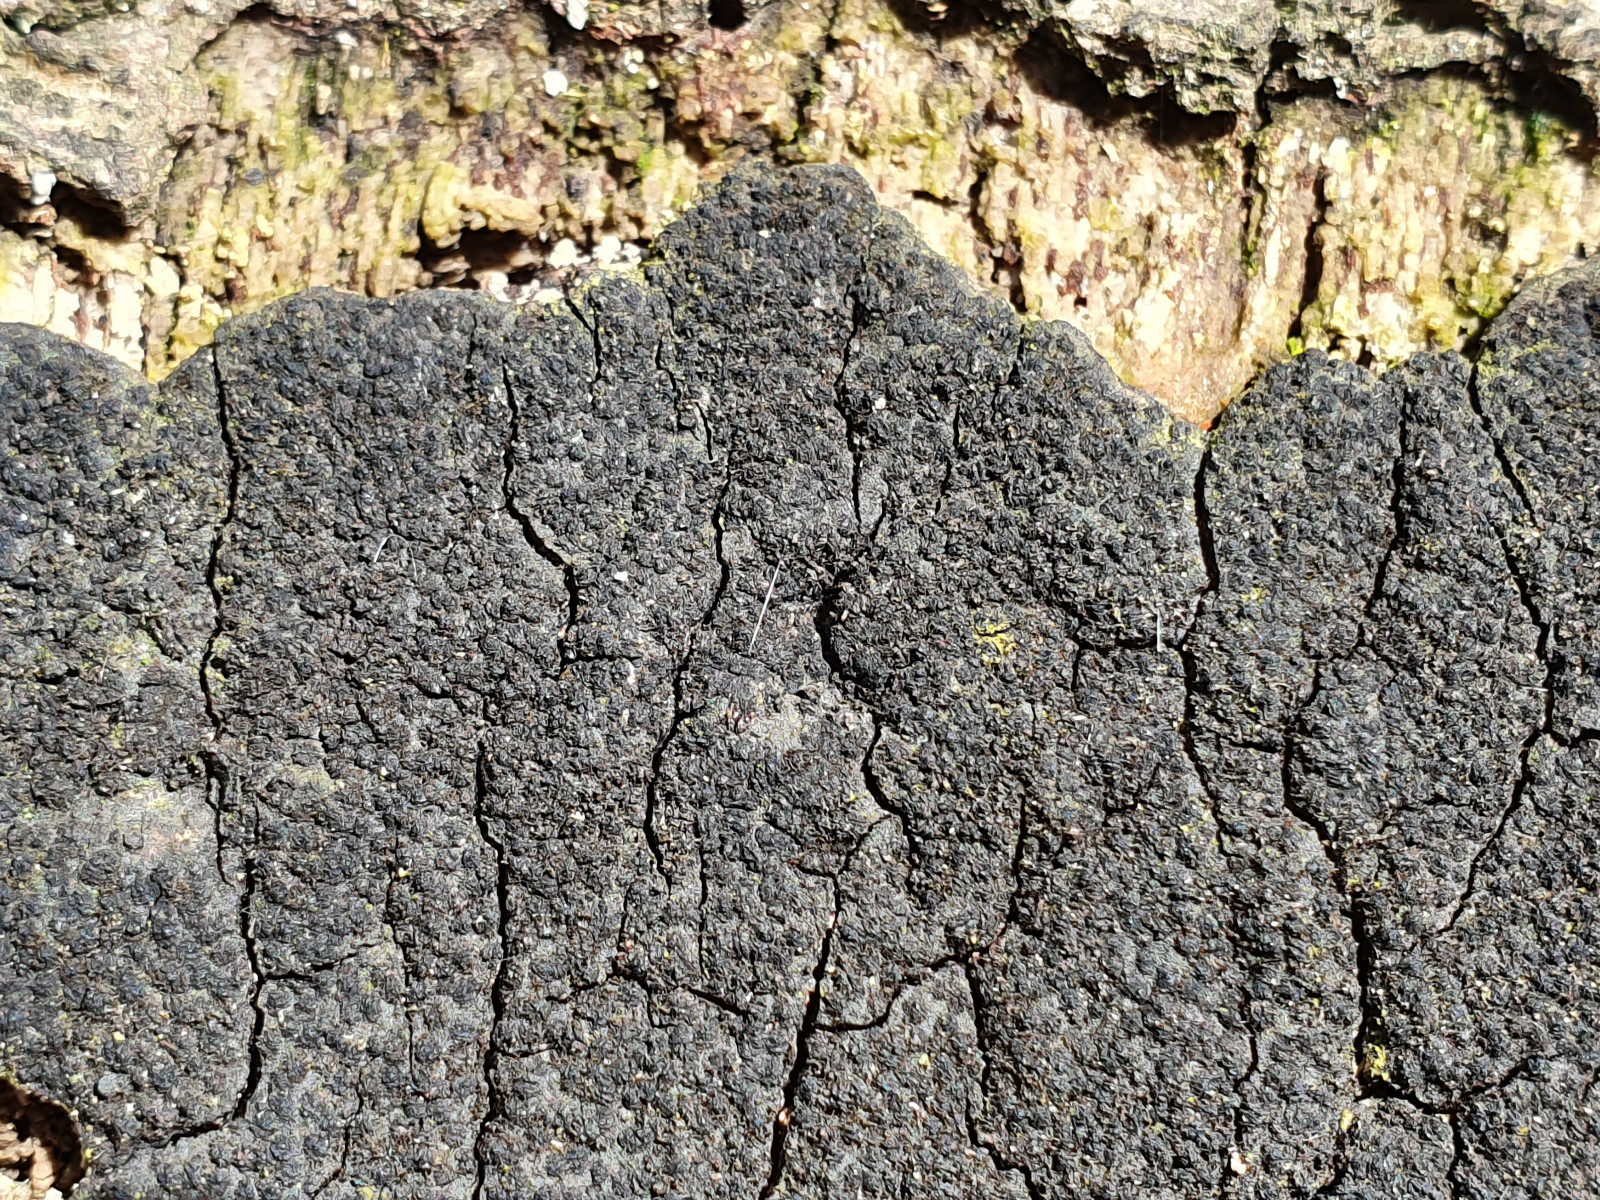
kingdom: Fungi
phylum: Ascomycota
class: Sordariomycetes
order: Xylariales
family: Diatrypaceae
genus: Eutypa
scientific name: Eutypa spinosa
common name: grov kulskorpe
